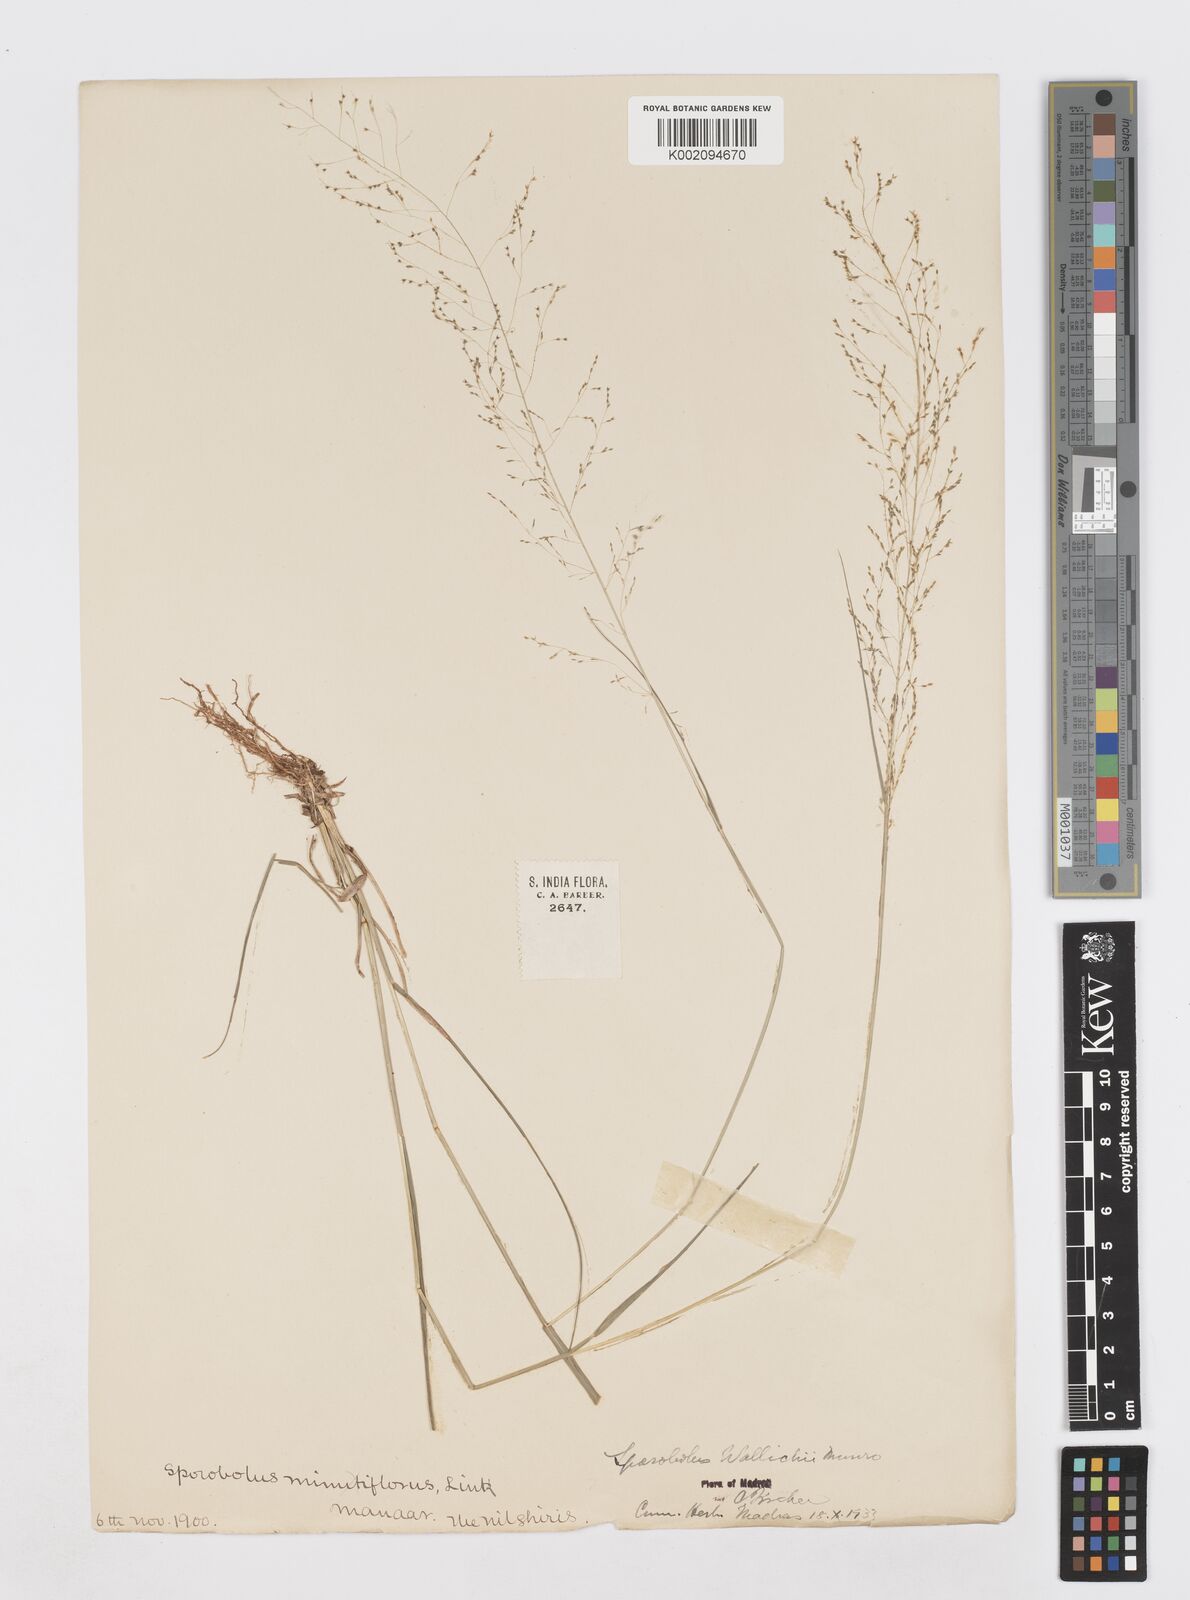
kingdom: Plantae
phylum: Tracheophyta
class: Liliopsida
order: Poales
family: Poaceae
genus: Sporobolus
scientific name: Sporobolus wallichii
